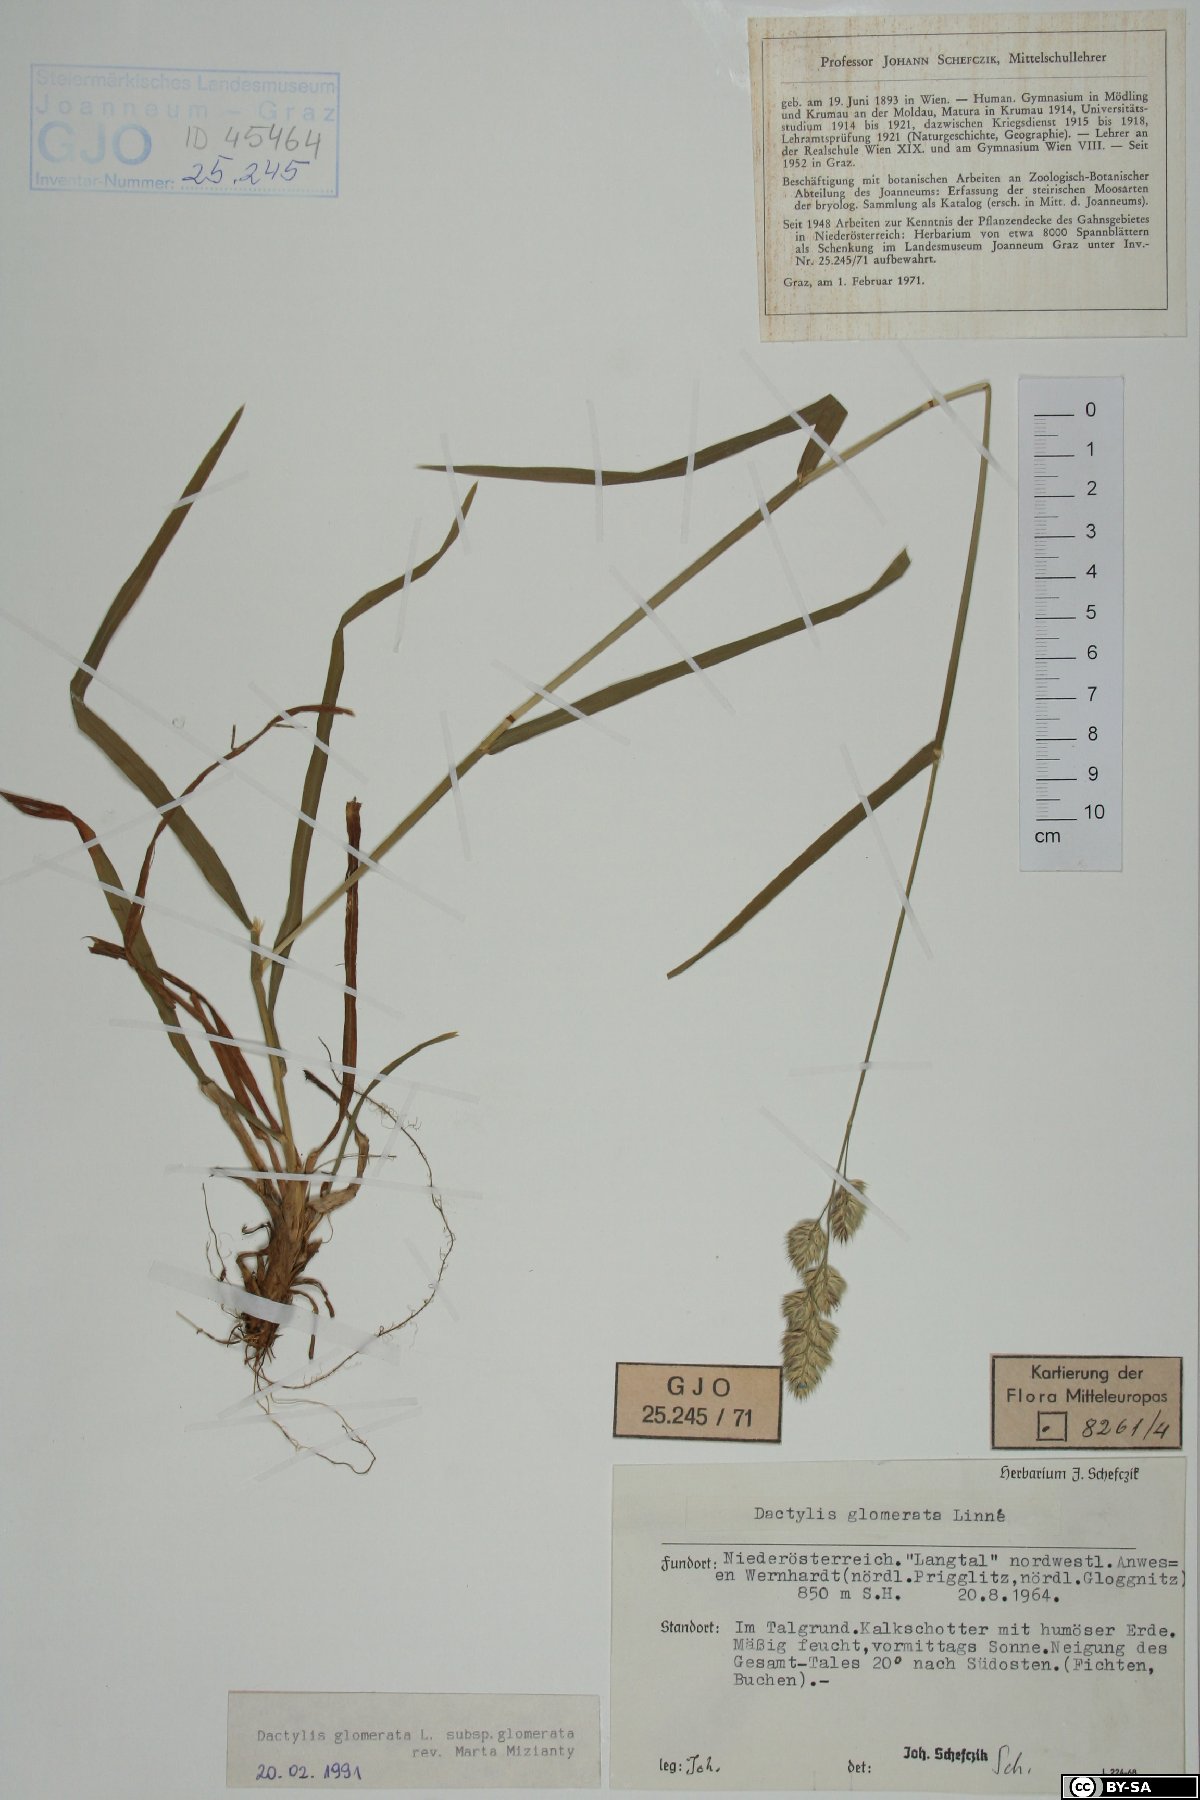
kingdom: Plantae
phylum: Tracheophyta
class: Liliopsida
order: Poales
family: Poaceae
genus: Dactylis
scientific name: Dactylis glomerata
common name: Orchardgrass
